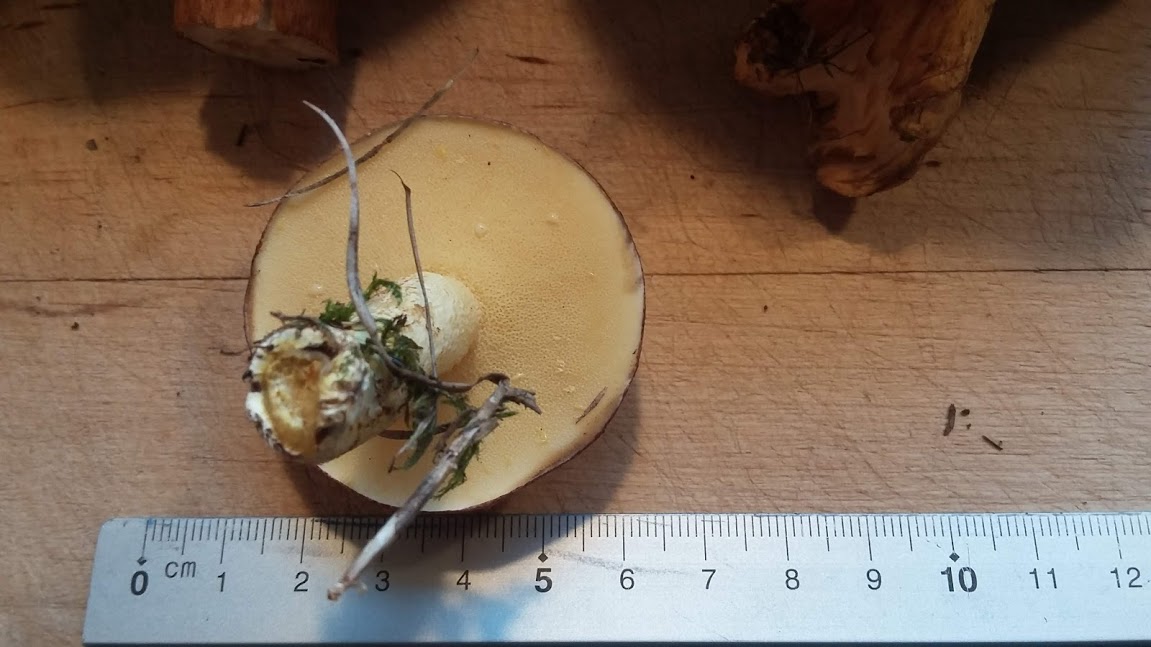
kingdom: Fungi
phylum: Basidiomycota
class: Agaricomycetes
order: Boletales
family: Suillaceae
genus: Suillus
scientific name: Suillus granulatus
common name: kornet slimrørhat
